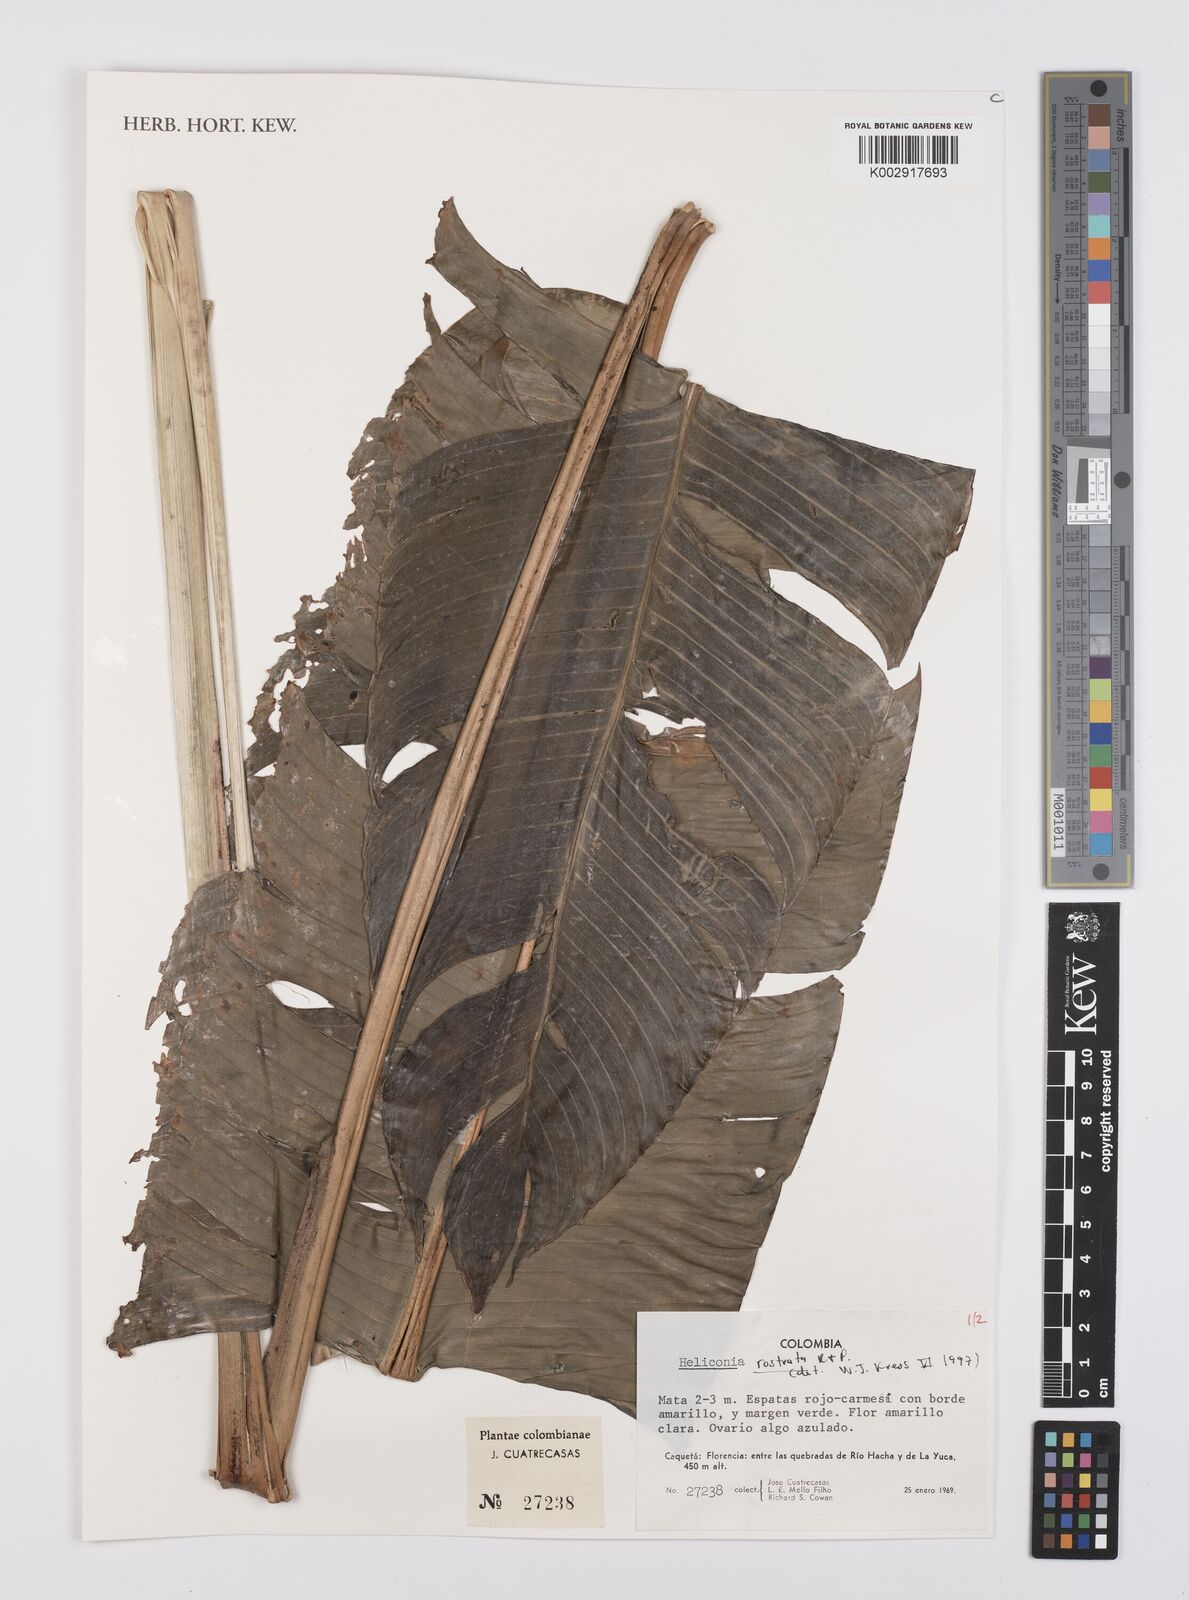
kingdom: Plantae
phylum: Tracheophyta
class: Liliopsida
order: Zingiberales
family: Heliconiaceae
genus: Heliconia
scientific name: Heliconia rostrata
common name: False bird of paradise
